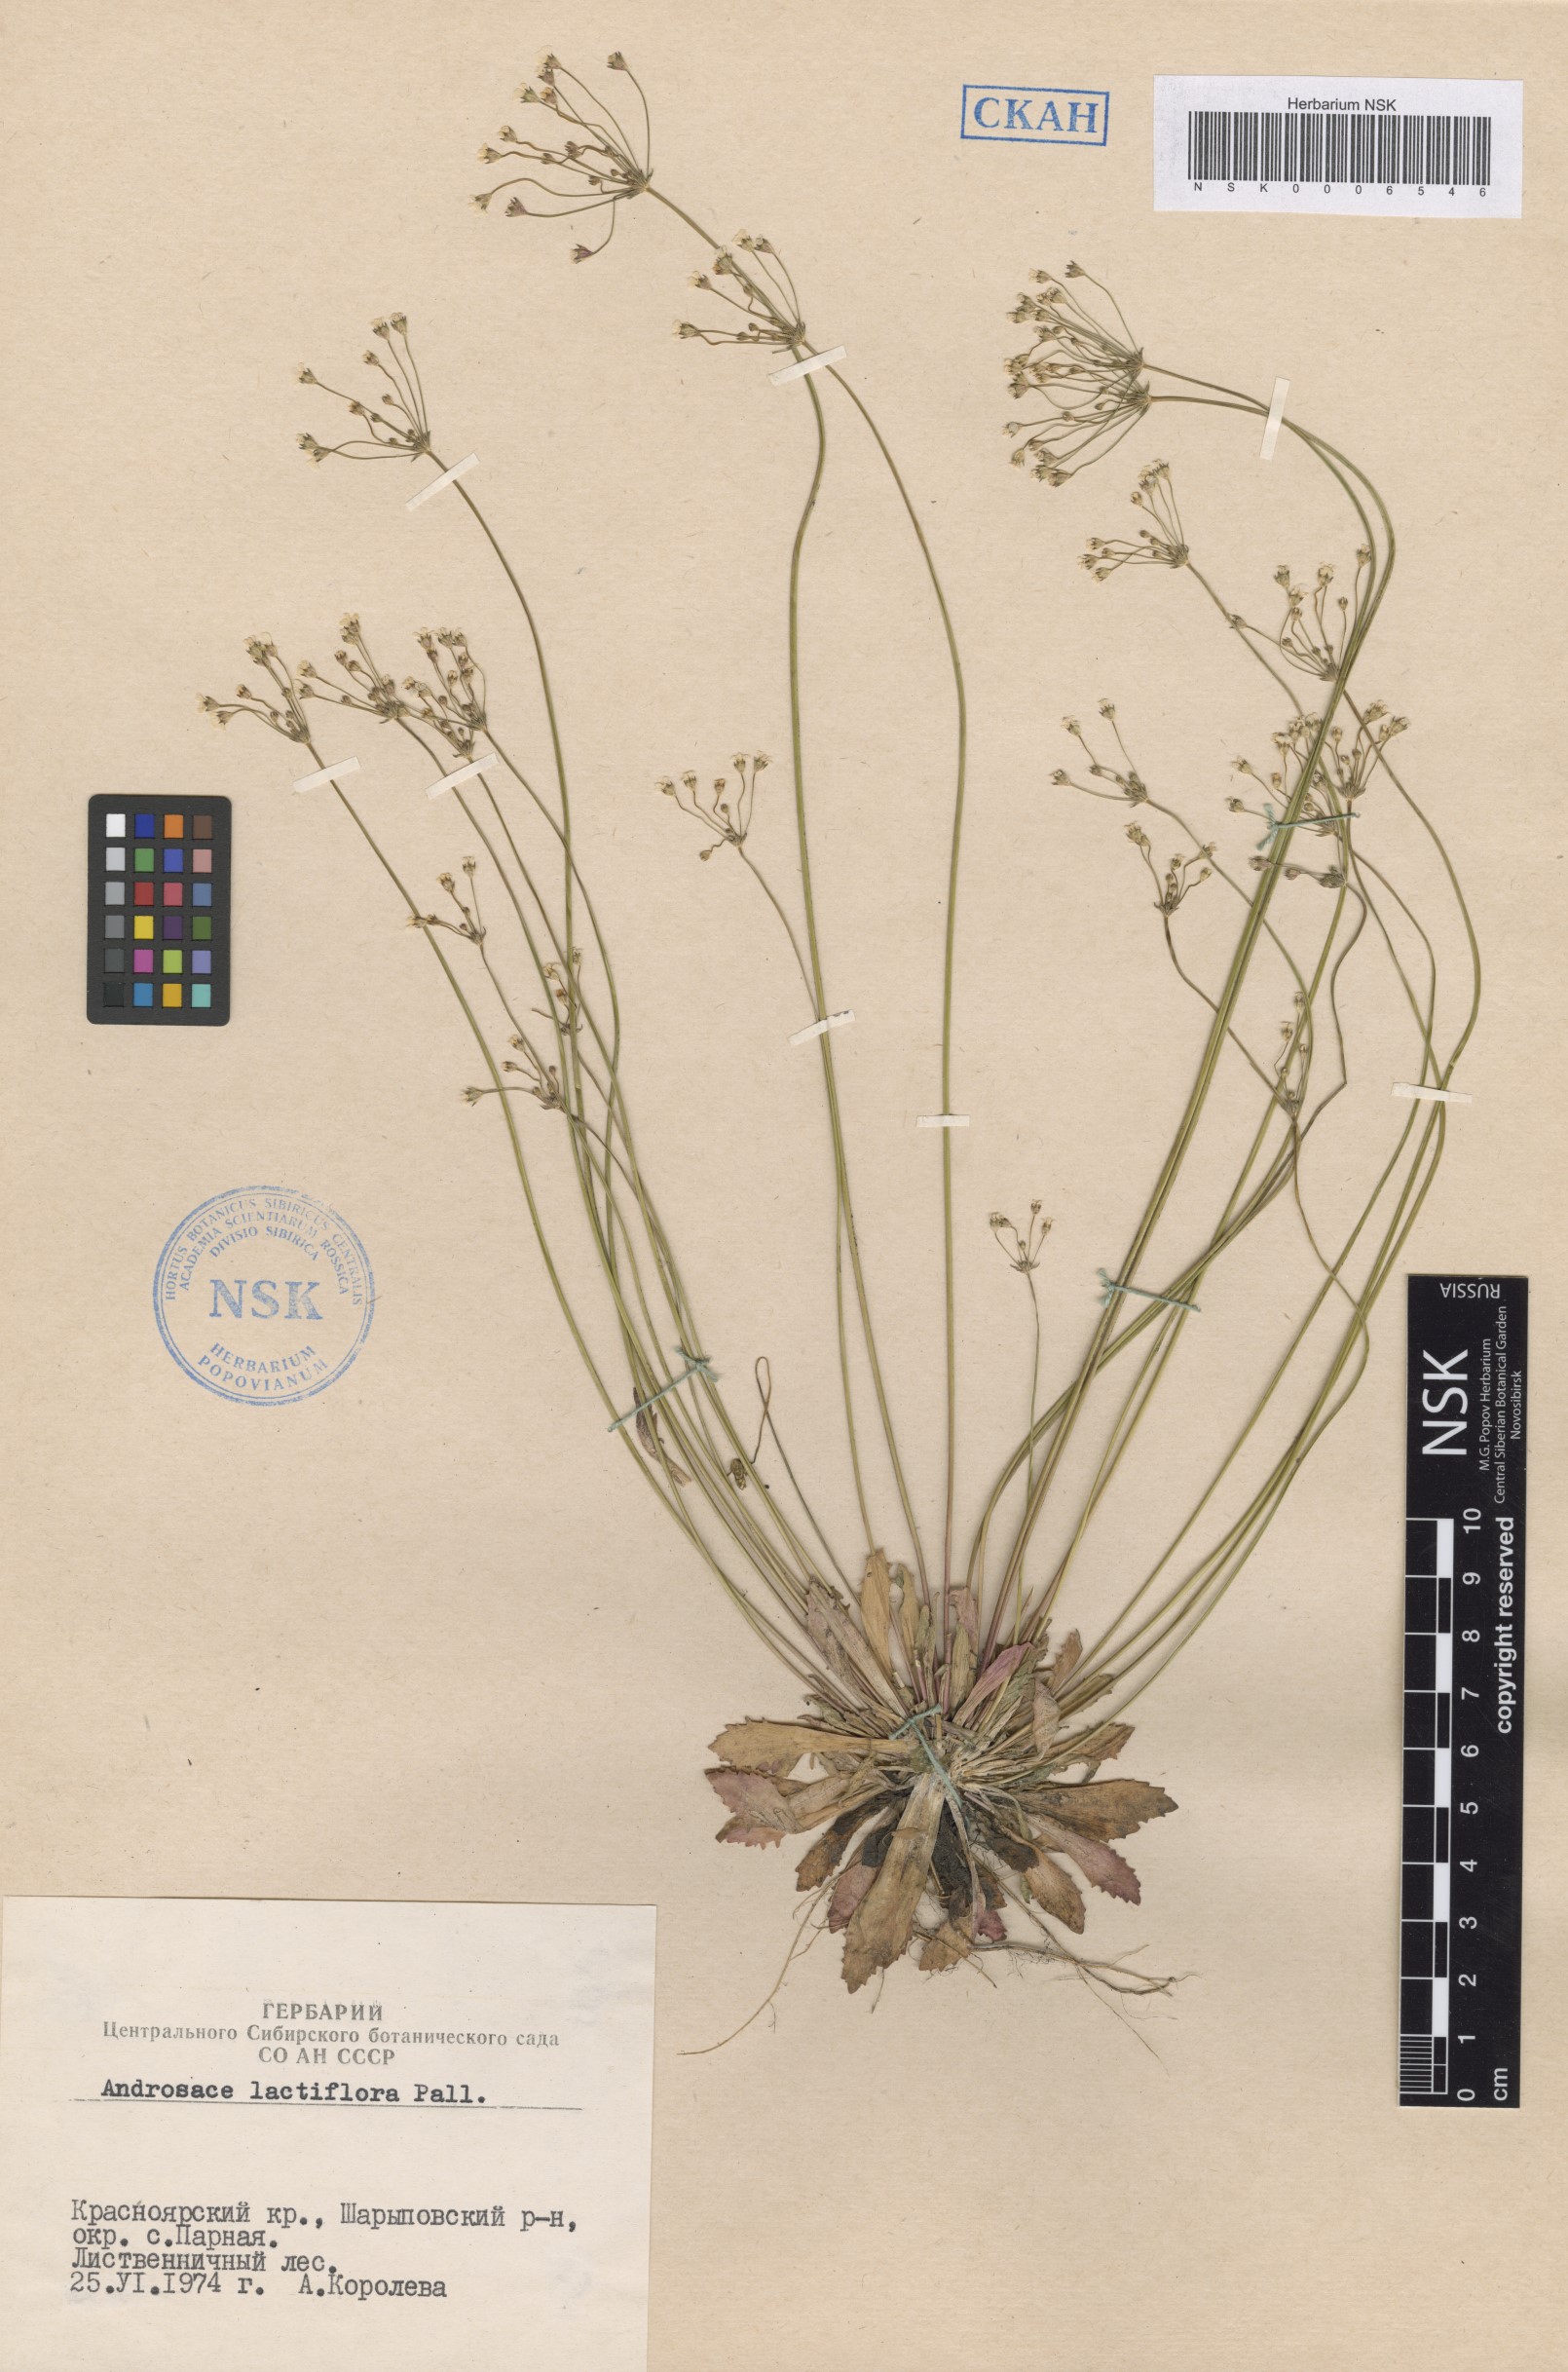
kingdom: Plantae
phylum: Tracheophyta
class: Magnoliopsida
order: Ericales
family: Primulaceae
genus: Androsace
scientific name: Androsace lactiflora
